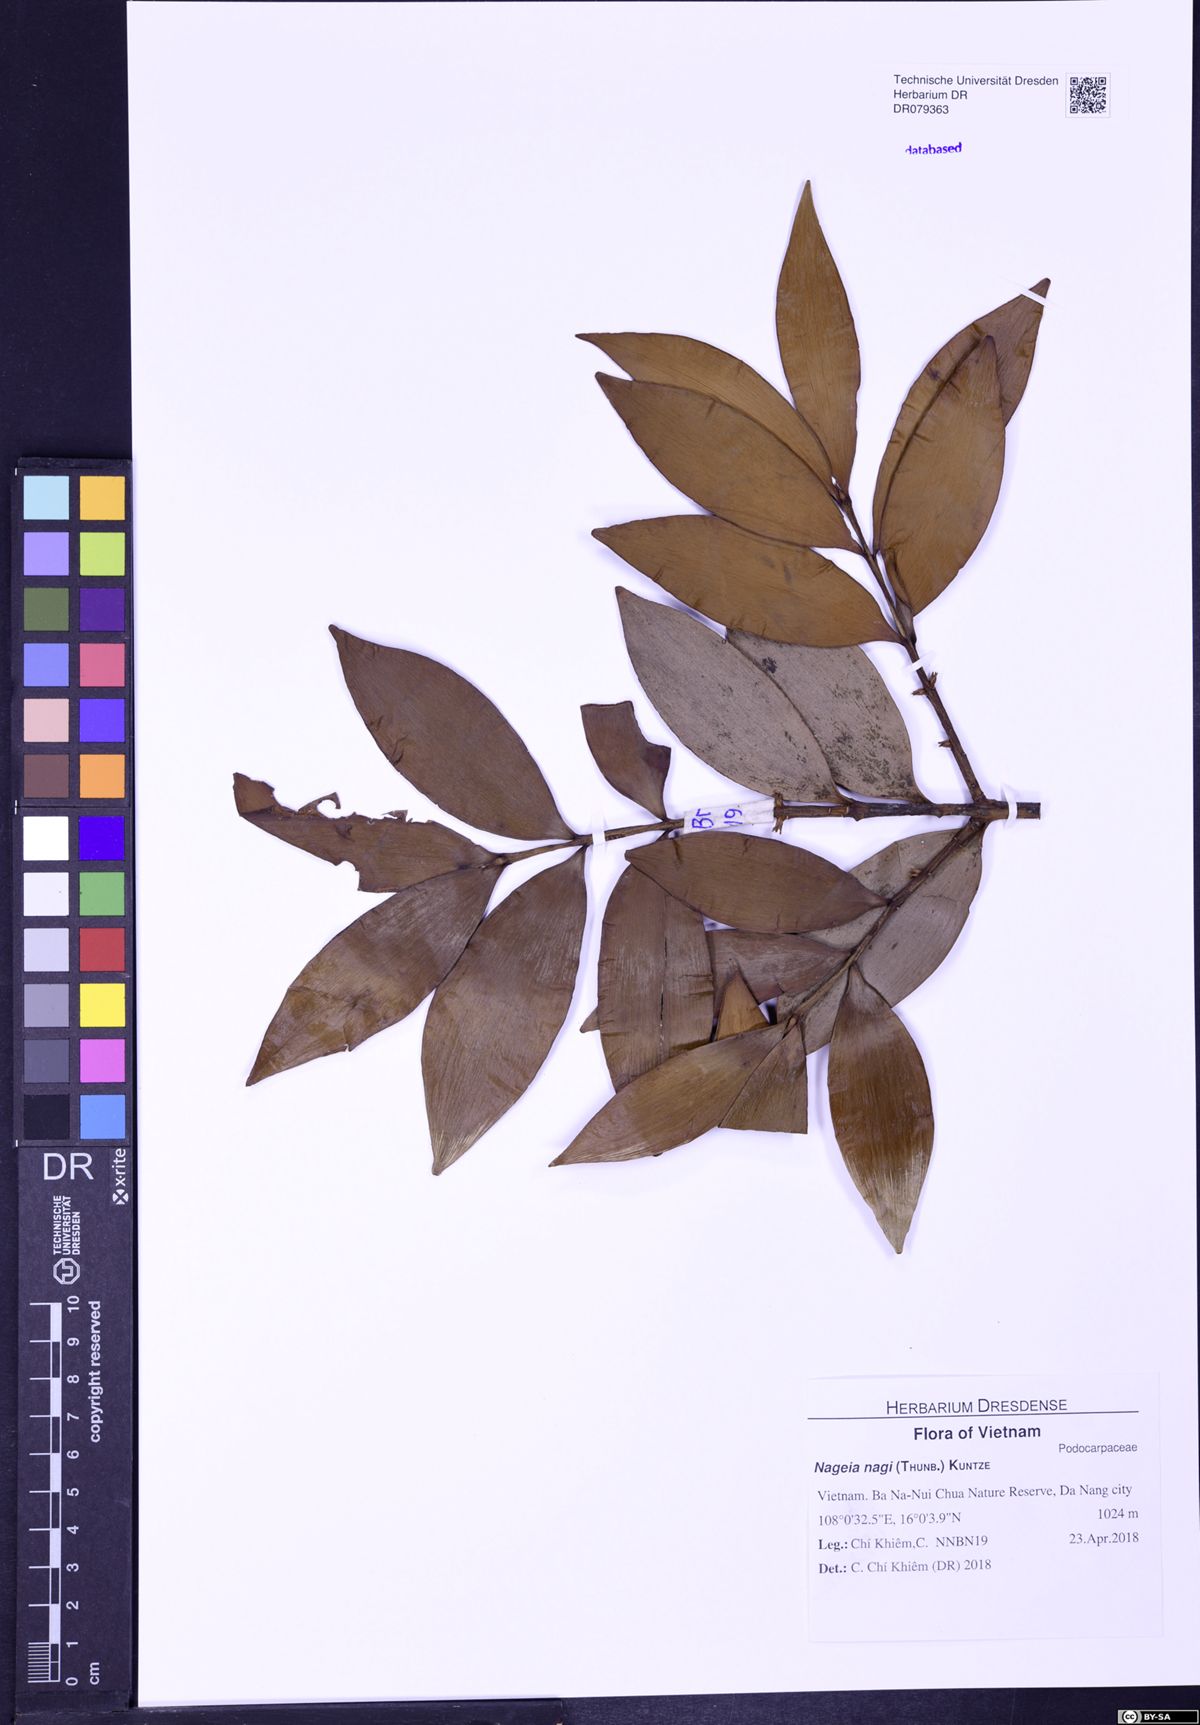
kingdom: Plantae
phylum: Tracheophyta
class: Pinopsida
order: Pinales
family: Podocarpaceae
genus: Nageia
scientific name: Nageia nagi
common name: Kaphal
